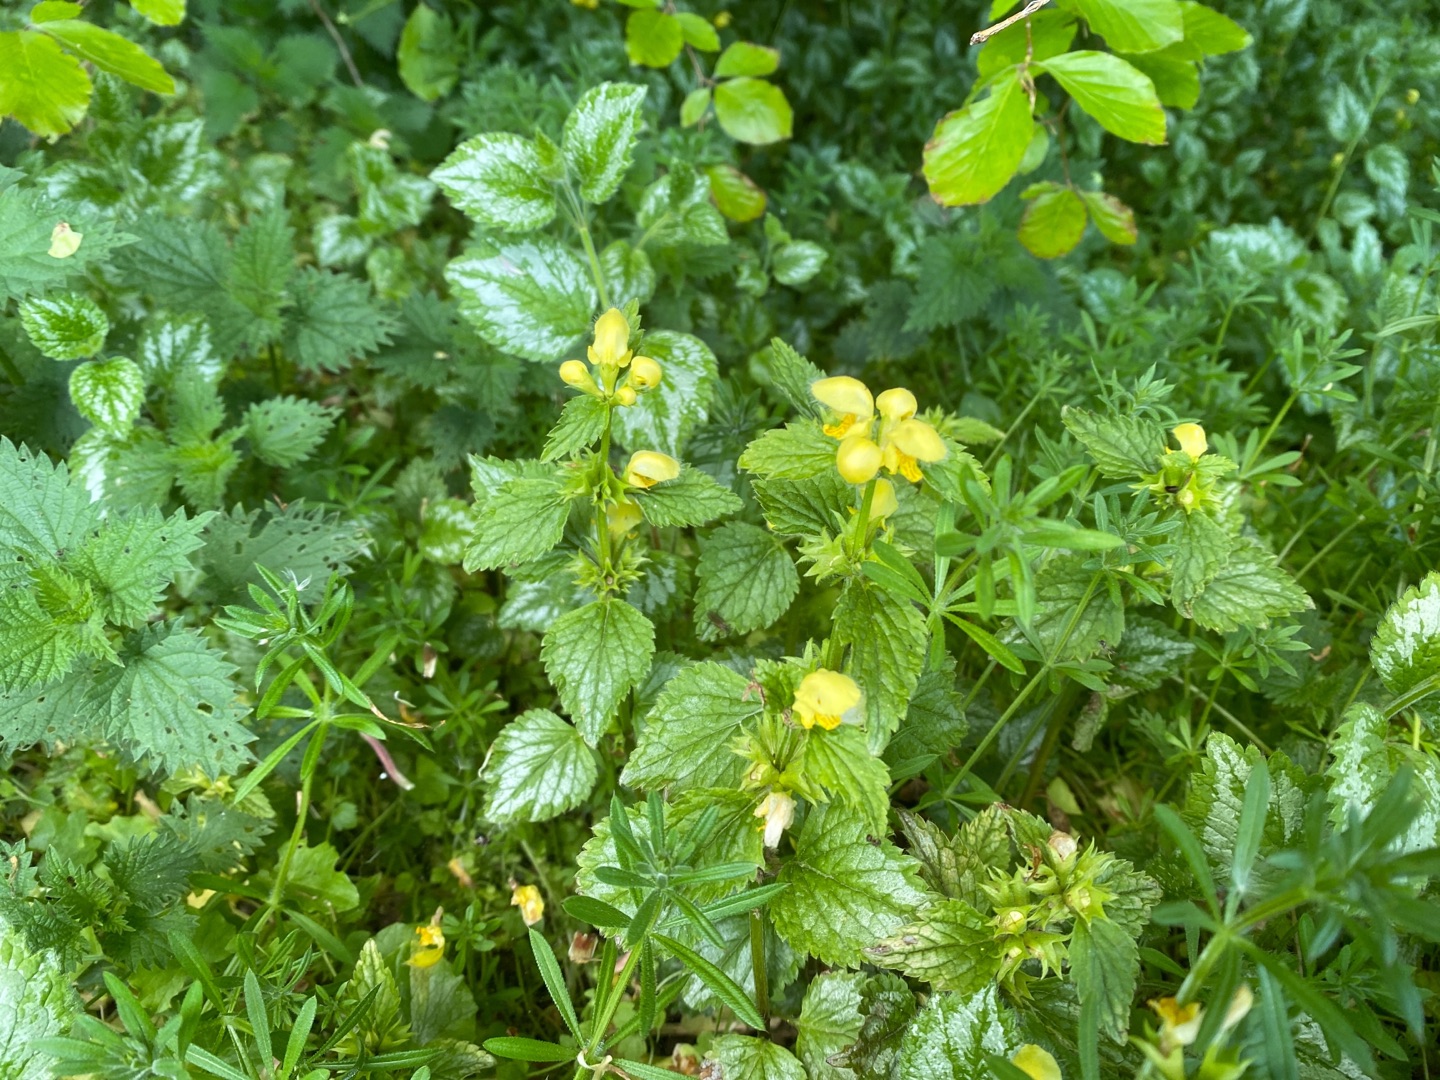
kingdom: Plantae
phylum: Tracheophyta
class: Magnoliopsida
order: Lamiales
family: Lamiaceae
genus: Lamium
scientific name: Lamium galeobdolon
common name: Have-guldnælde
